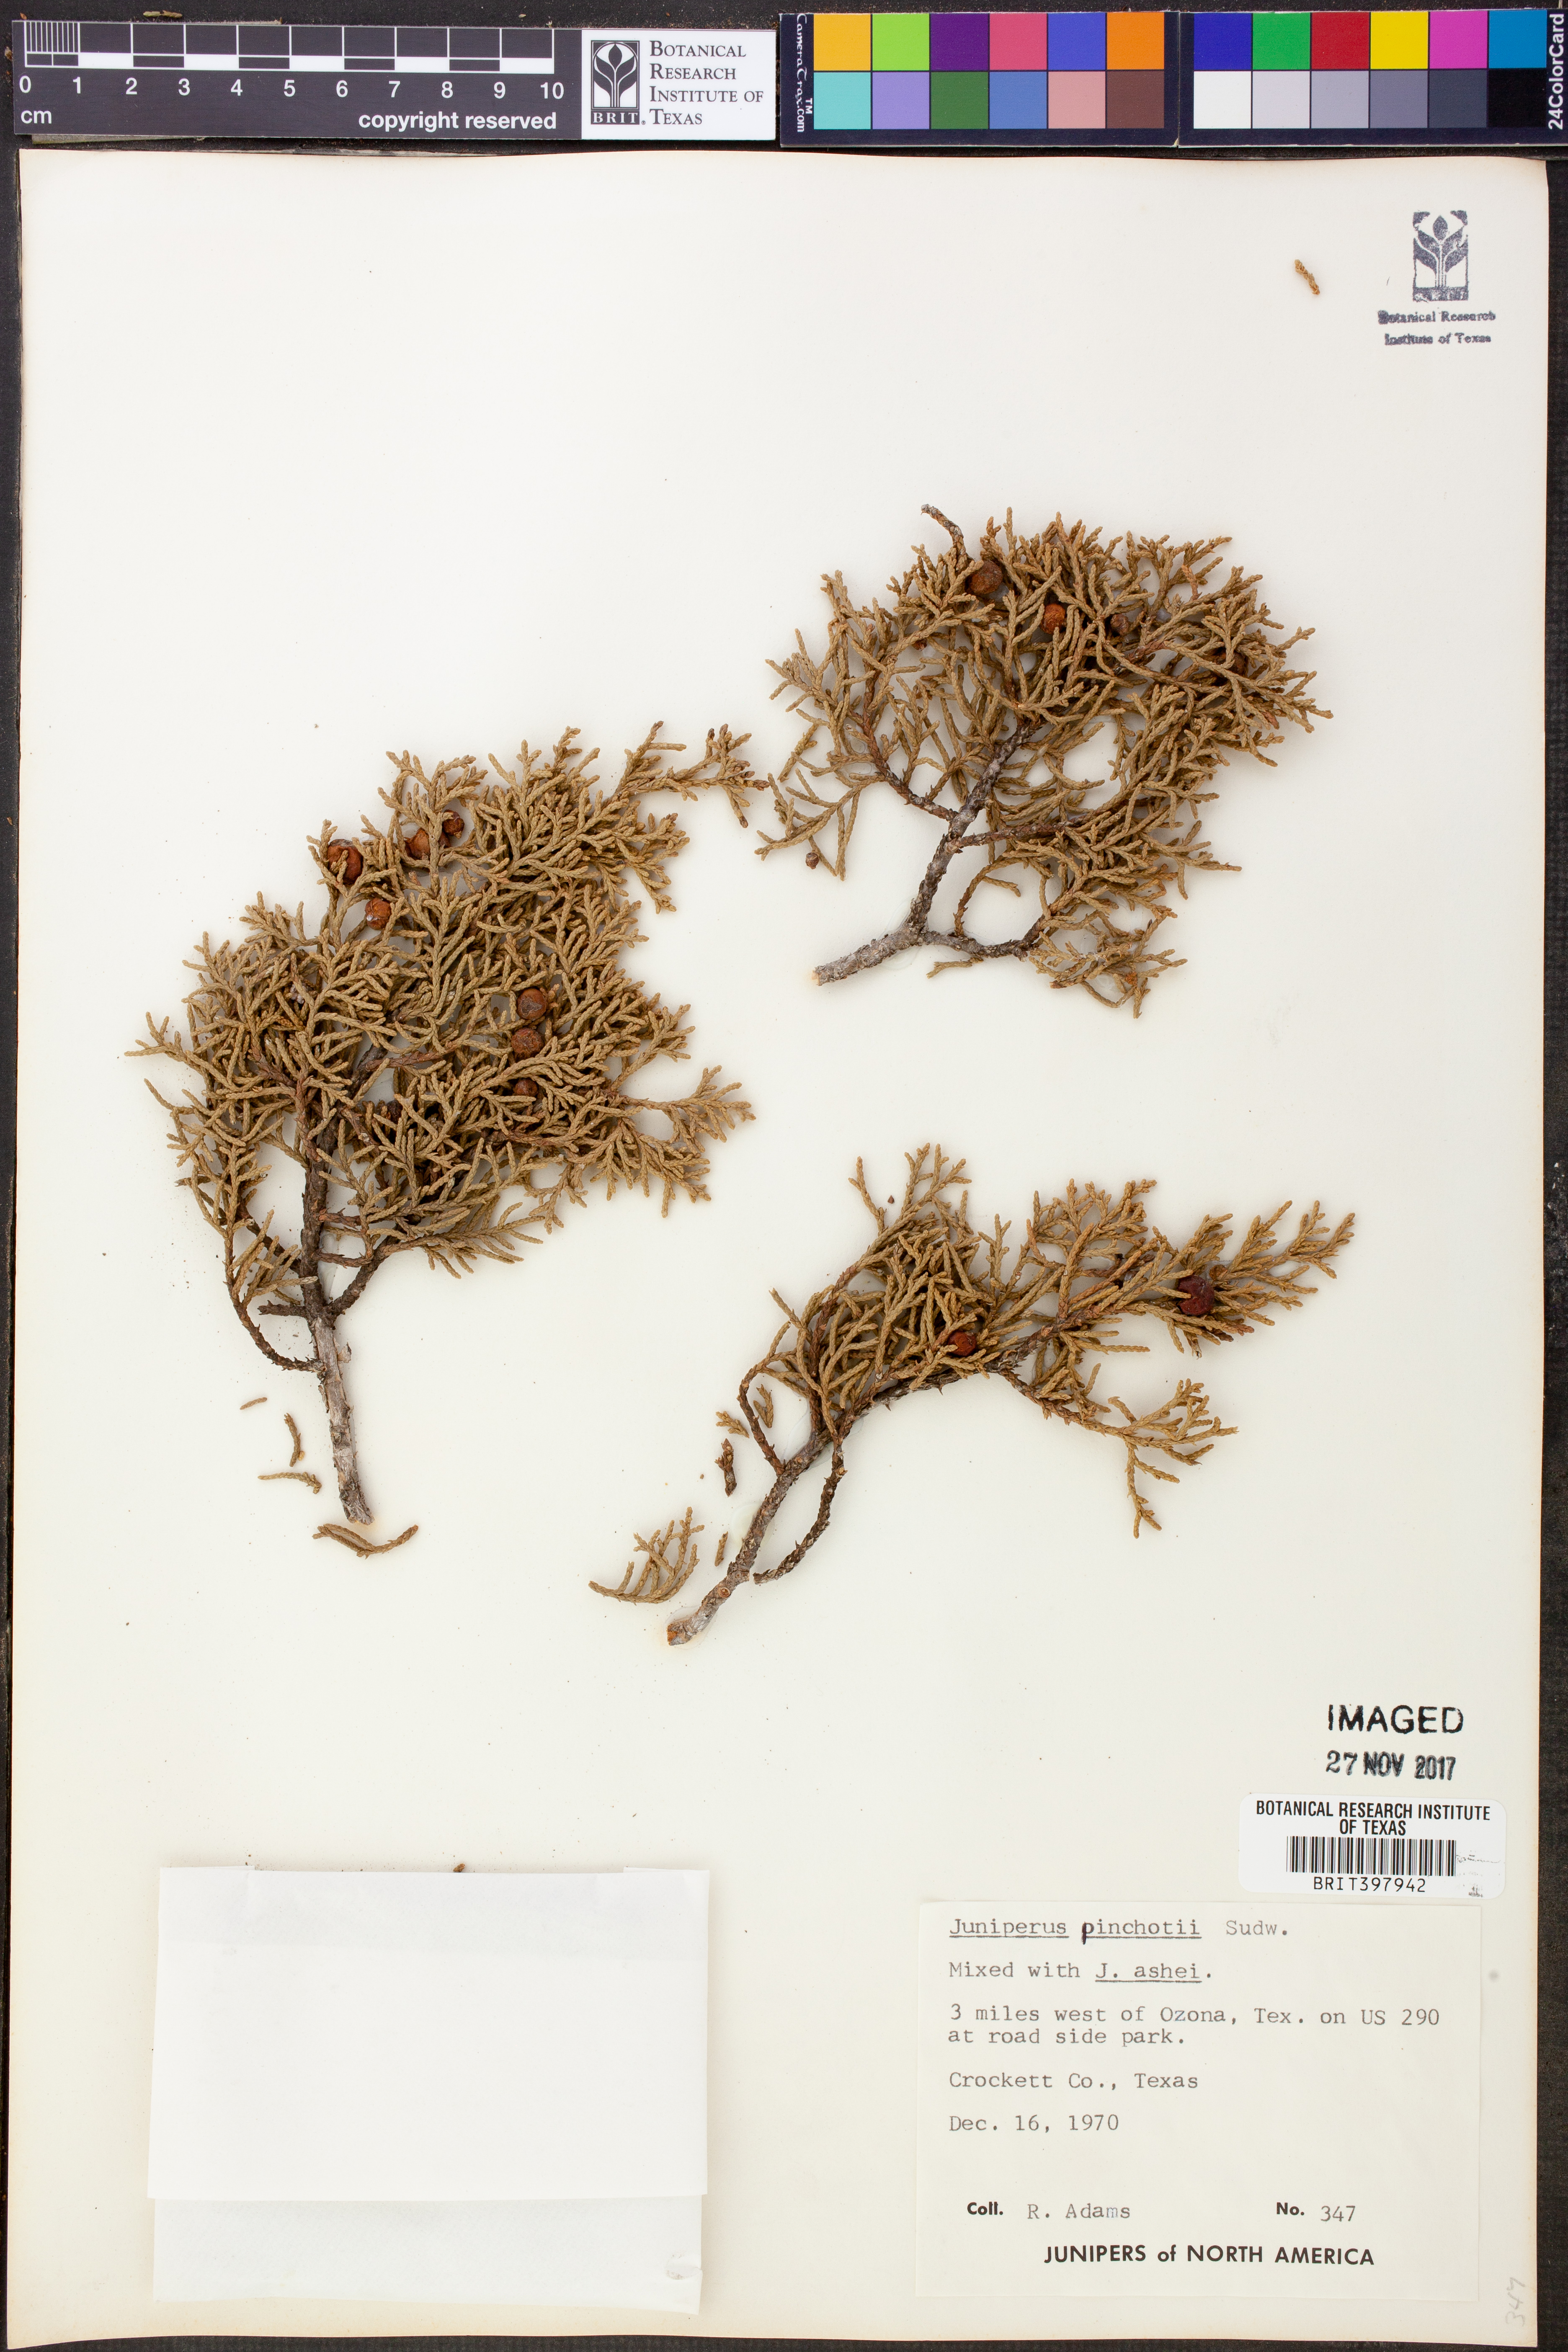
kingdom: Plantae
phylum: Tracheophyta
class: Pinopsida
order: Pinales
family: Cupressaceae
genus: Juniperus
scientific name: Juniperus pinchotii
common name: Pinchot juniper
